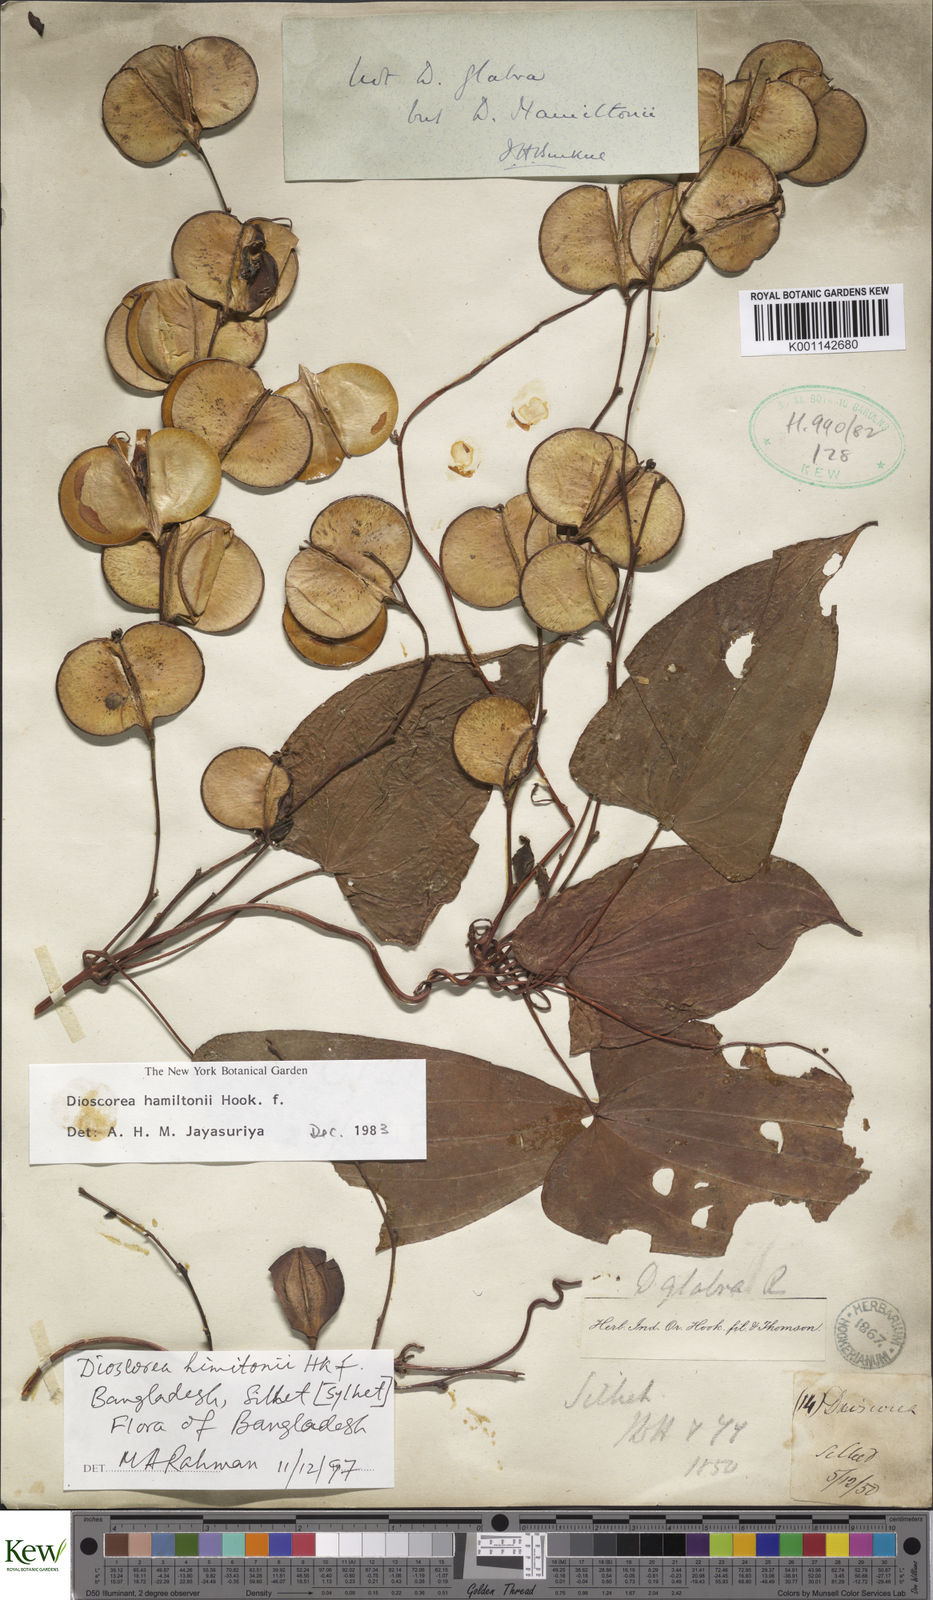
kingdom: Plantae
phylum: Tracheophyta
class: Liliopsida
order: Dioscoreales
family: Dioscoreaceae
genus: Dioscorea
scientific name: Dioscorea hamiltonii
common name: Mountain yam
